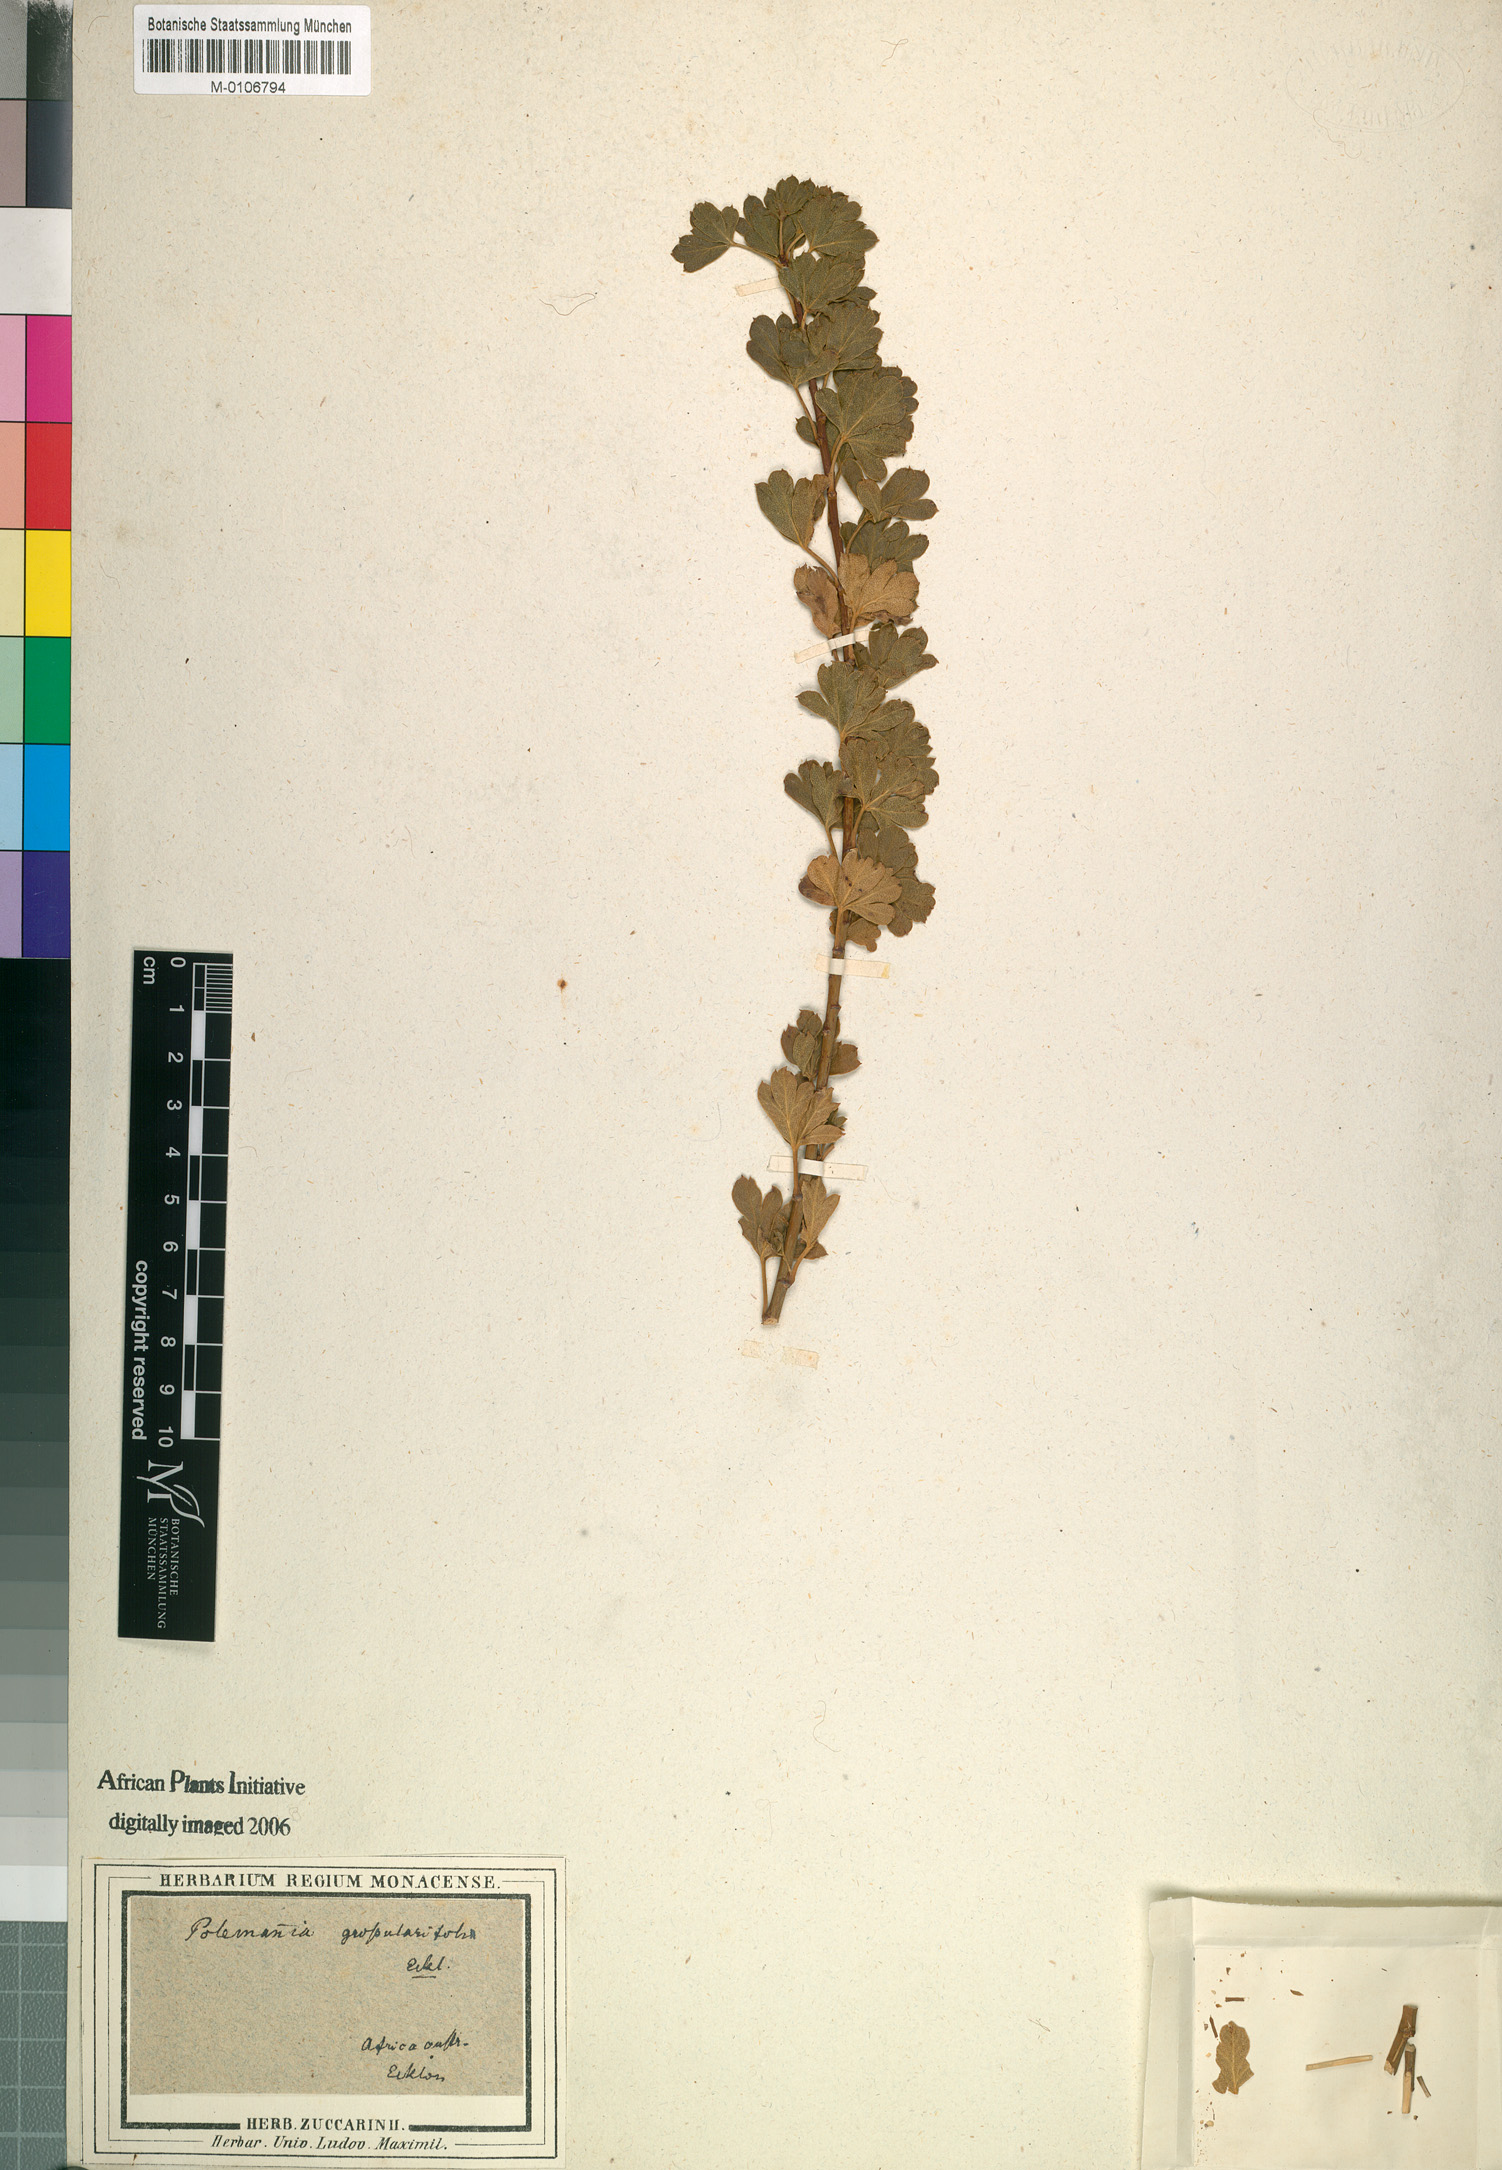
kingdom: Plantae
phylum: Tracheophyta
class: Magnoliopsida
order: Apiales
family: Apiaceae
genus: Polemannia
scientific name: Polemannia grossulariifolia
